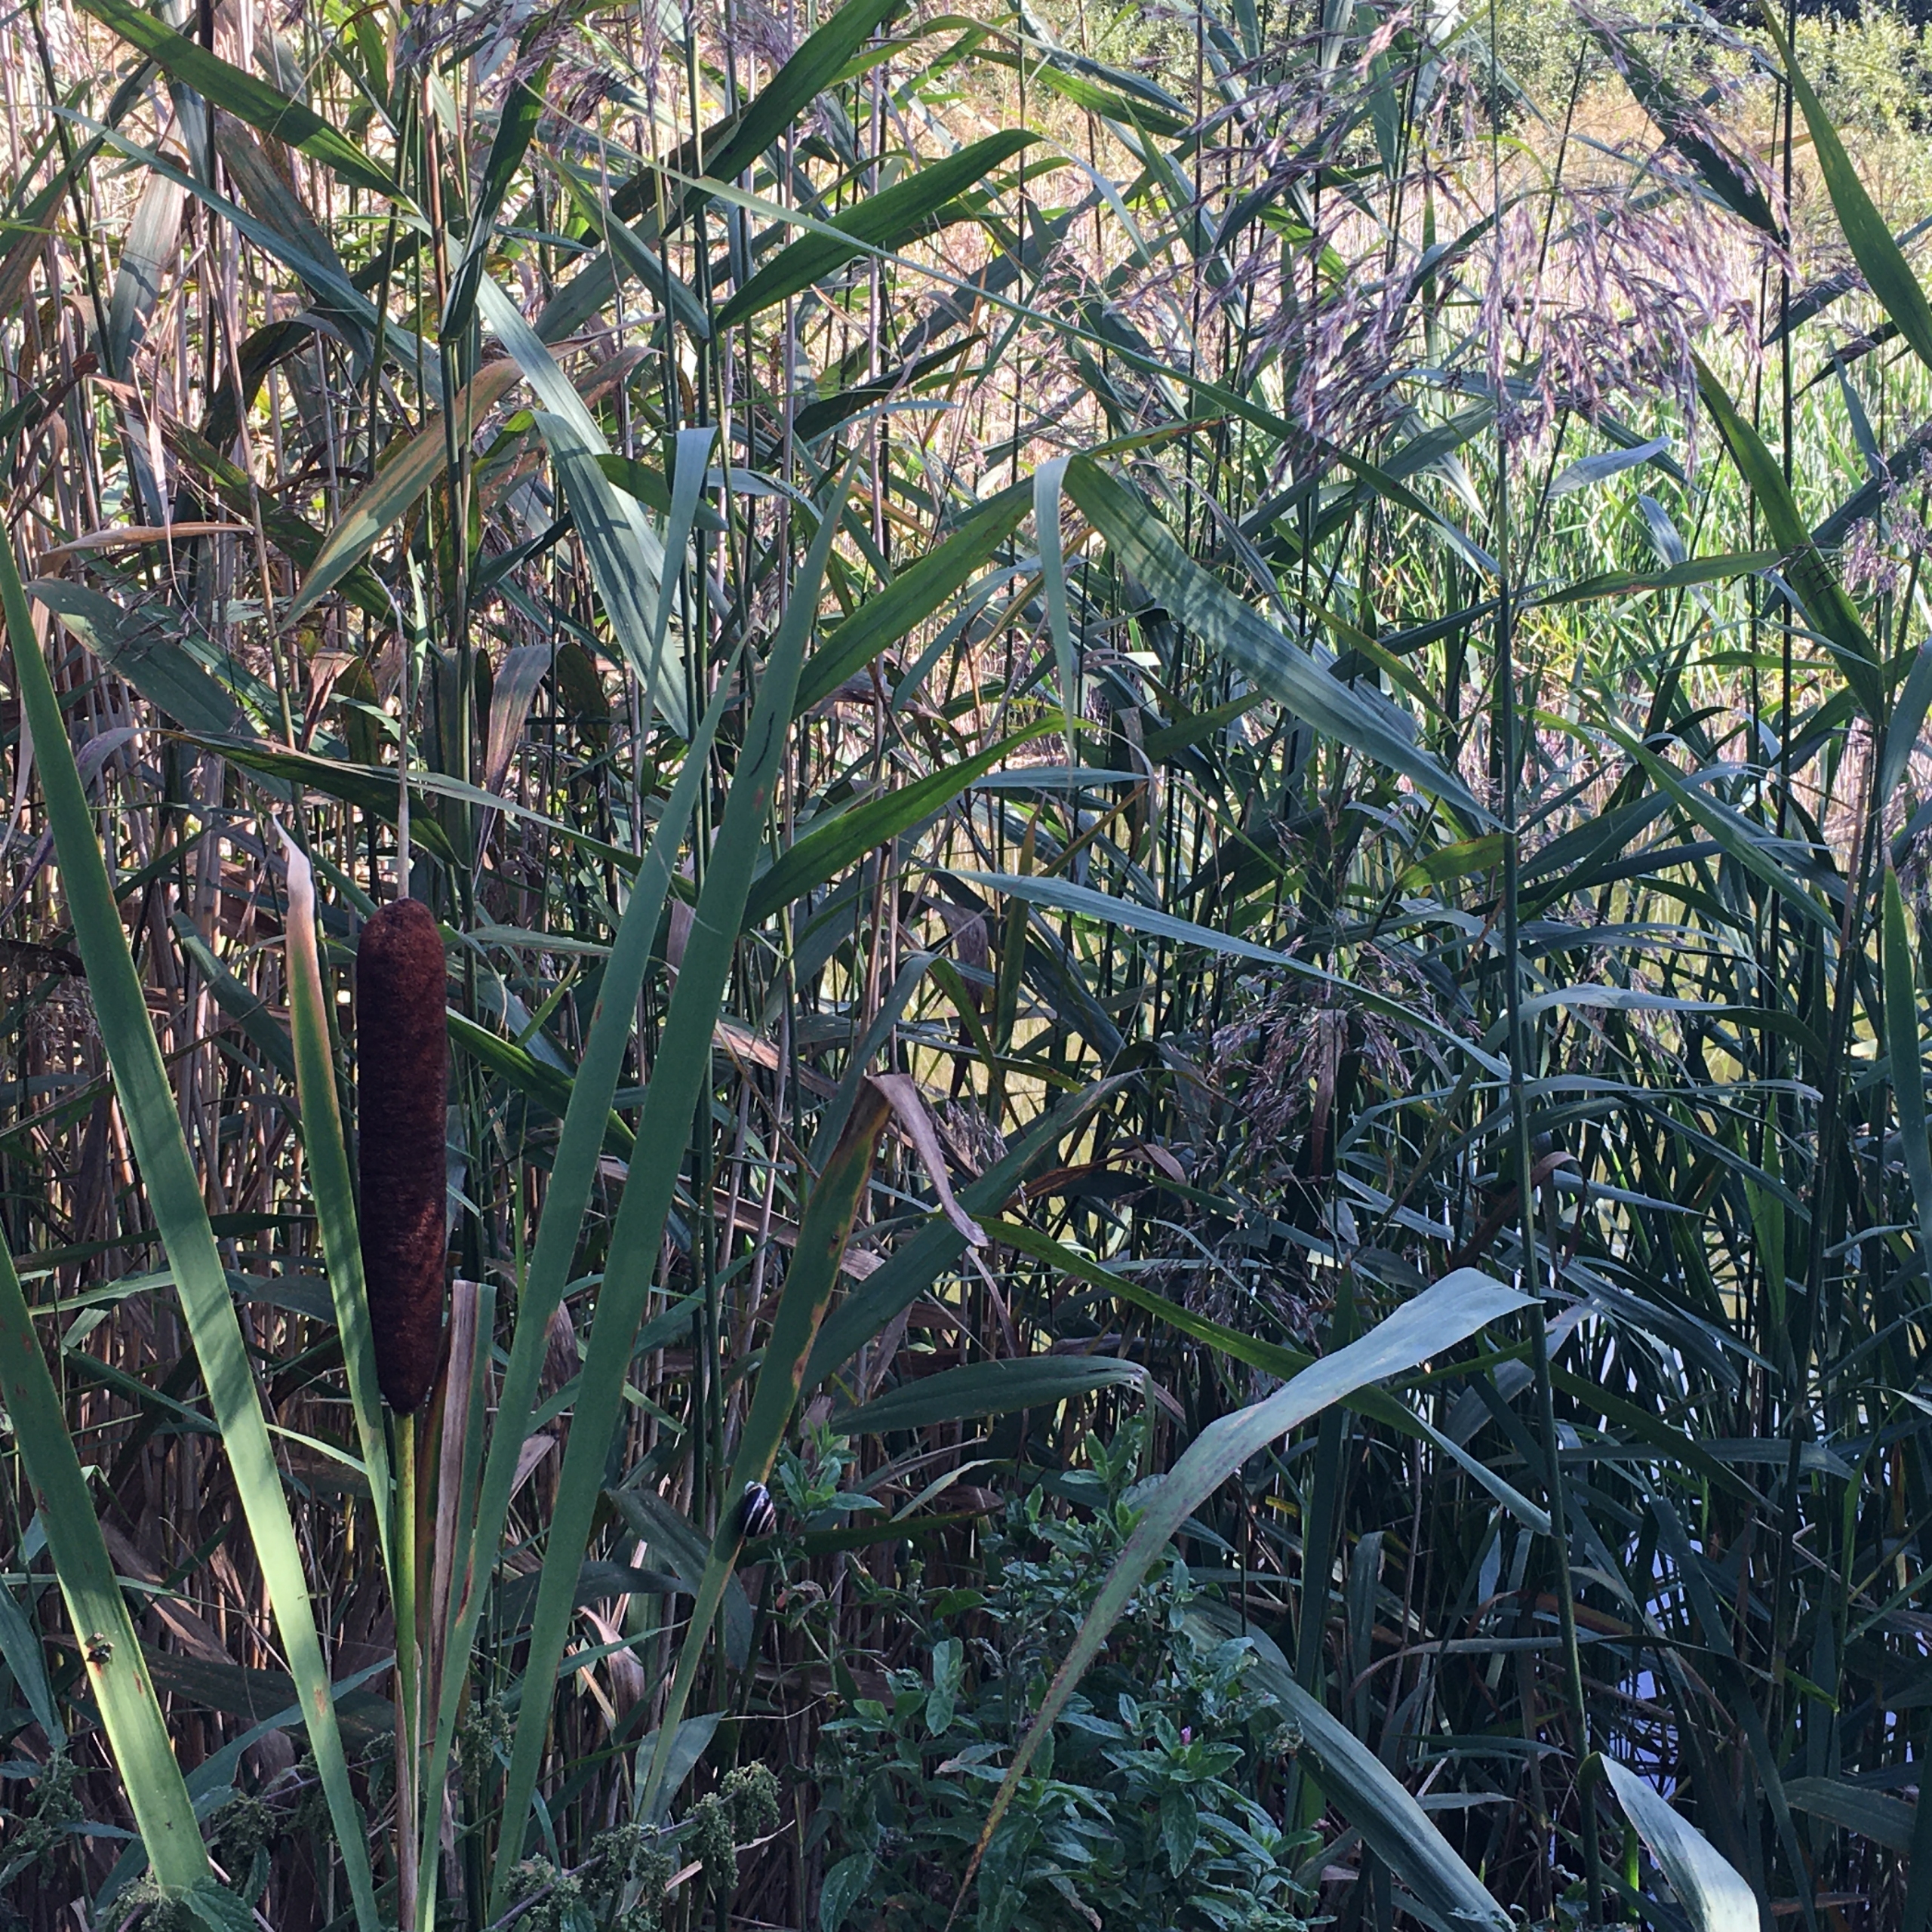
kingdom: Plantae
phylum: Tracheophyta
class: Liliopsida
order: Poales
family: Typhaceae
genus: Typha
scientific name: Typha latifolia
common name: Bredbladet dunhammer
